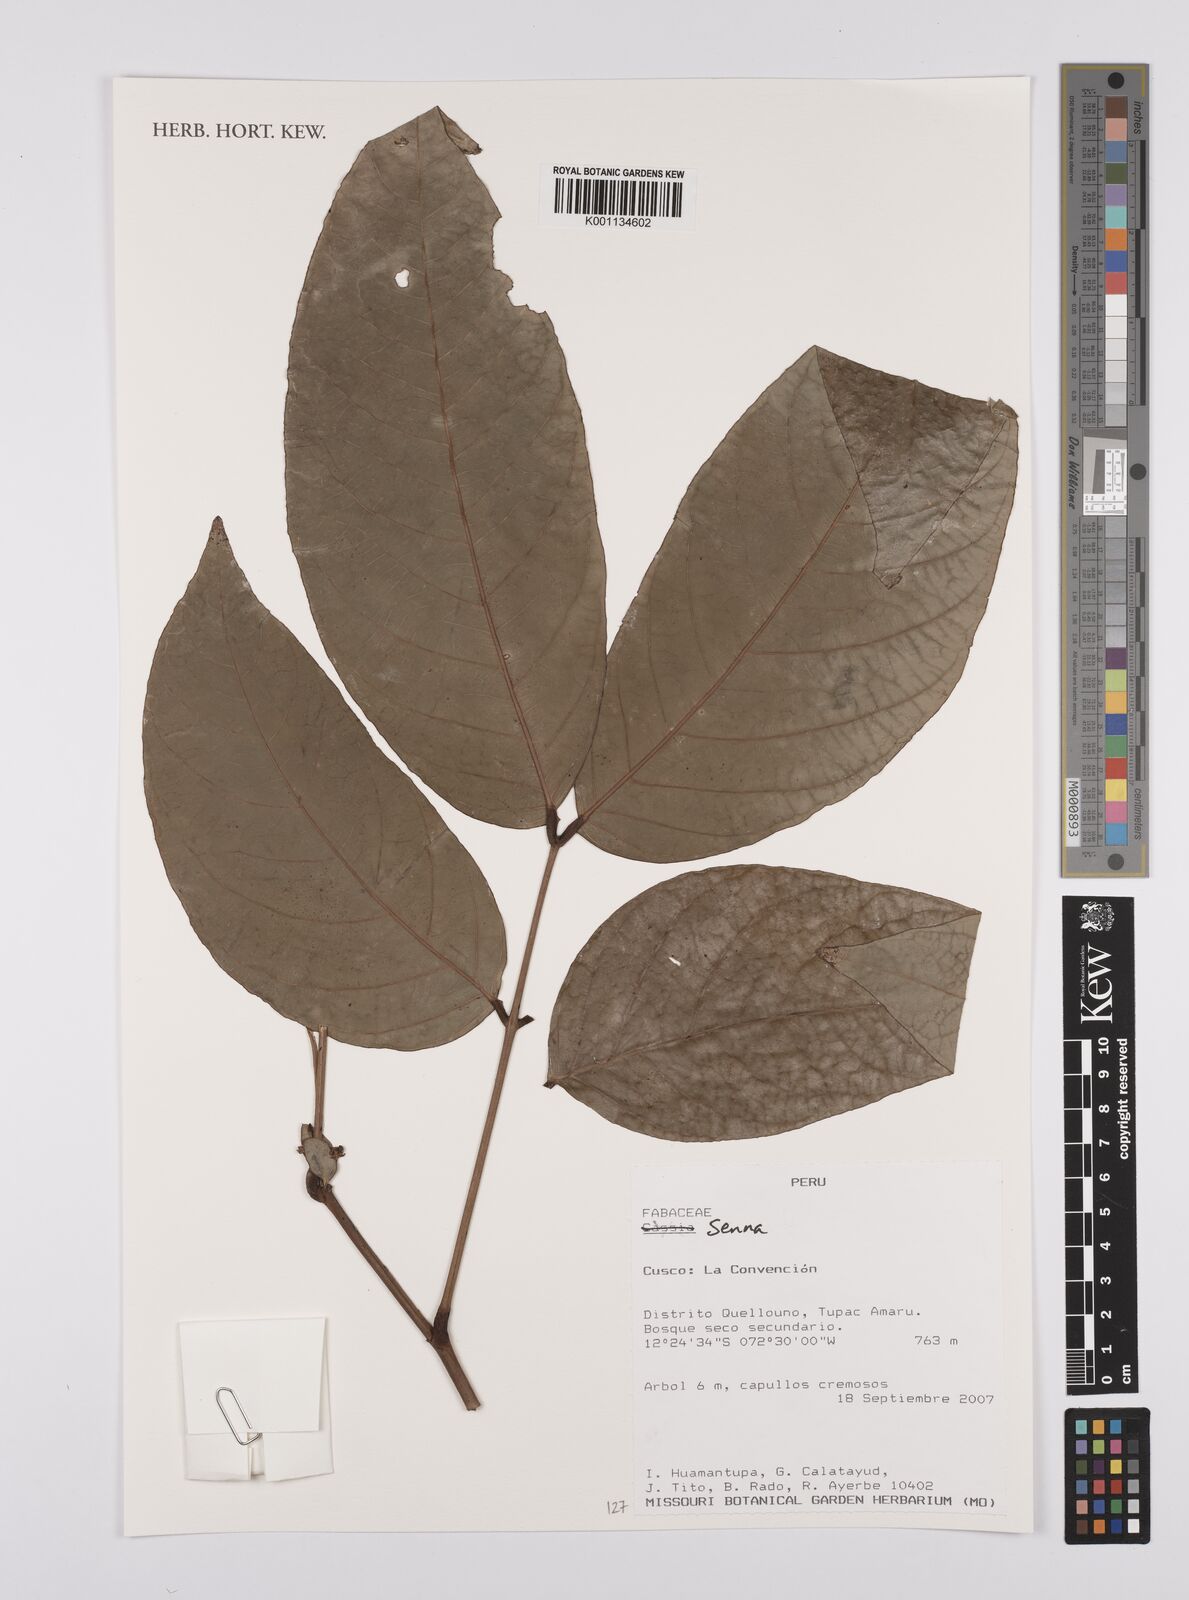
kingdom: Plantae
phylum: Tracheophyta
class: Magnoliopsida
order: Fabales
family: Fabaceae
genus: Senna
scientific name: Senna
